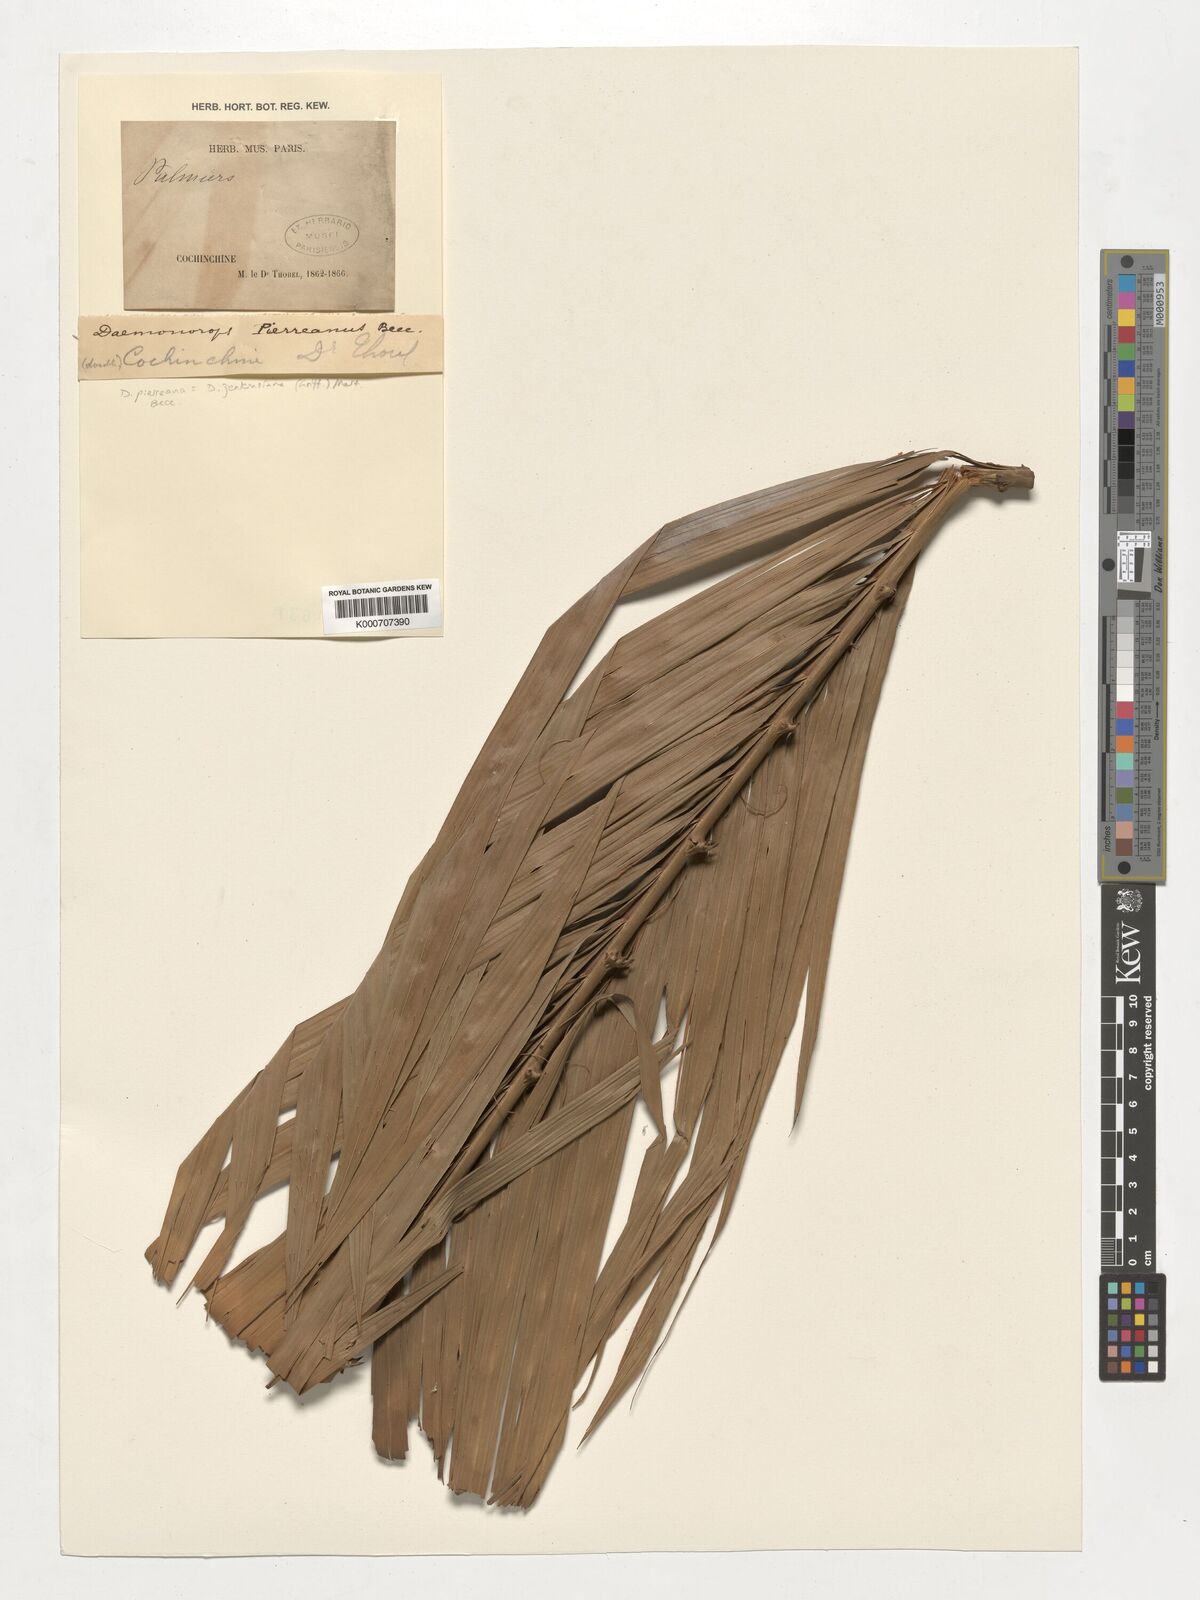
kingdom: Plantae
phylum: Tracheophyta
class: Liliopsida
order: Arecales
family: Arecaceae
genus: Calamus
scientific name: Calamus melanochaetes
